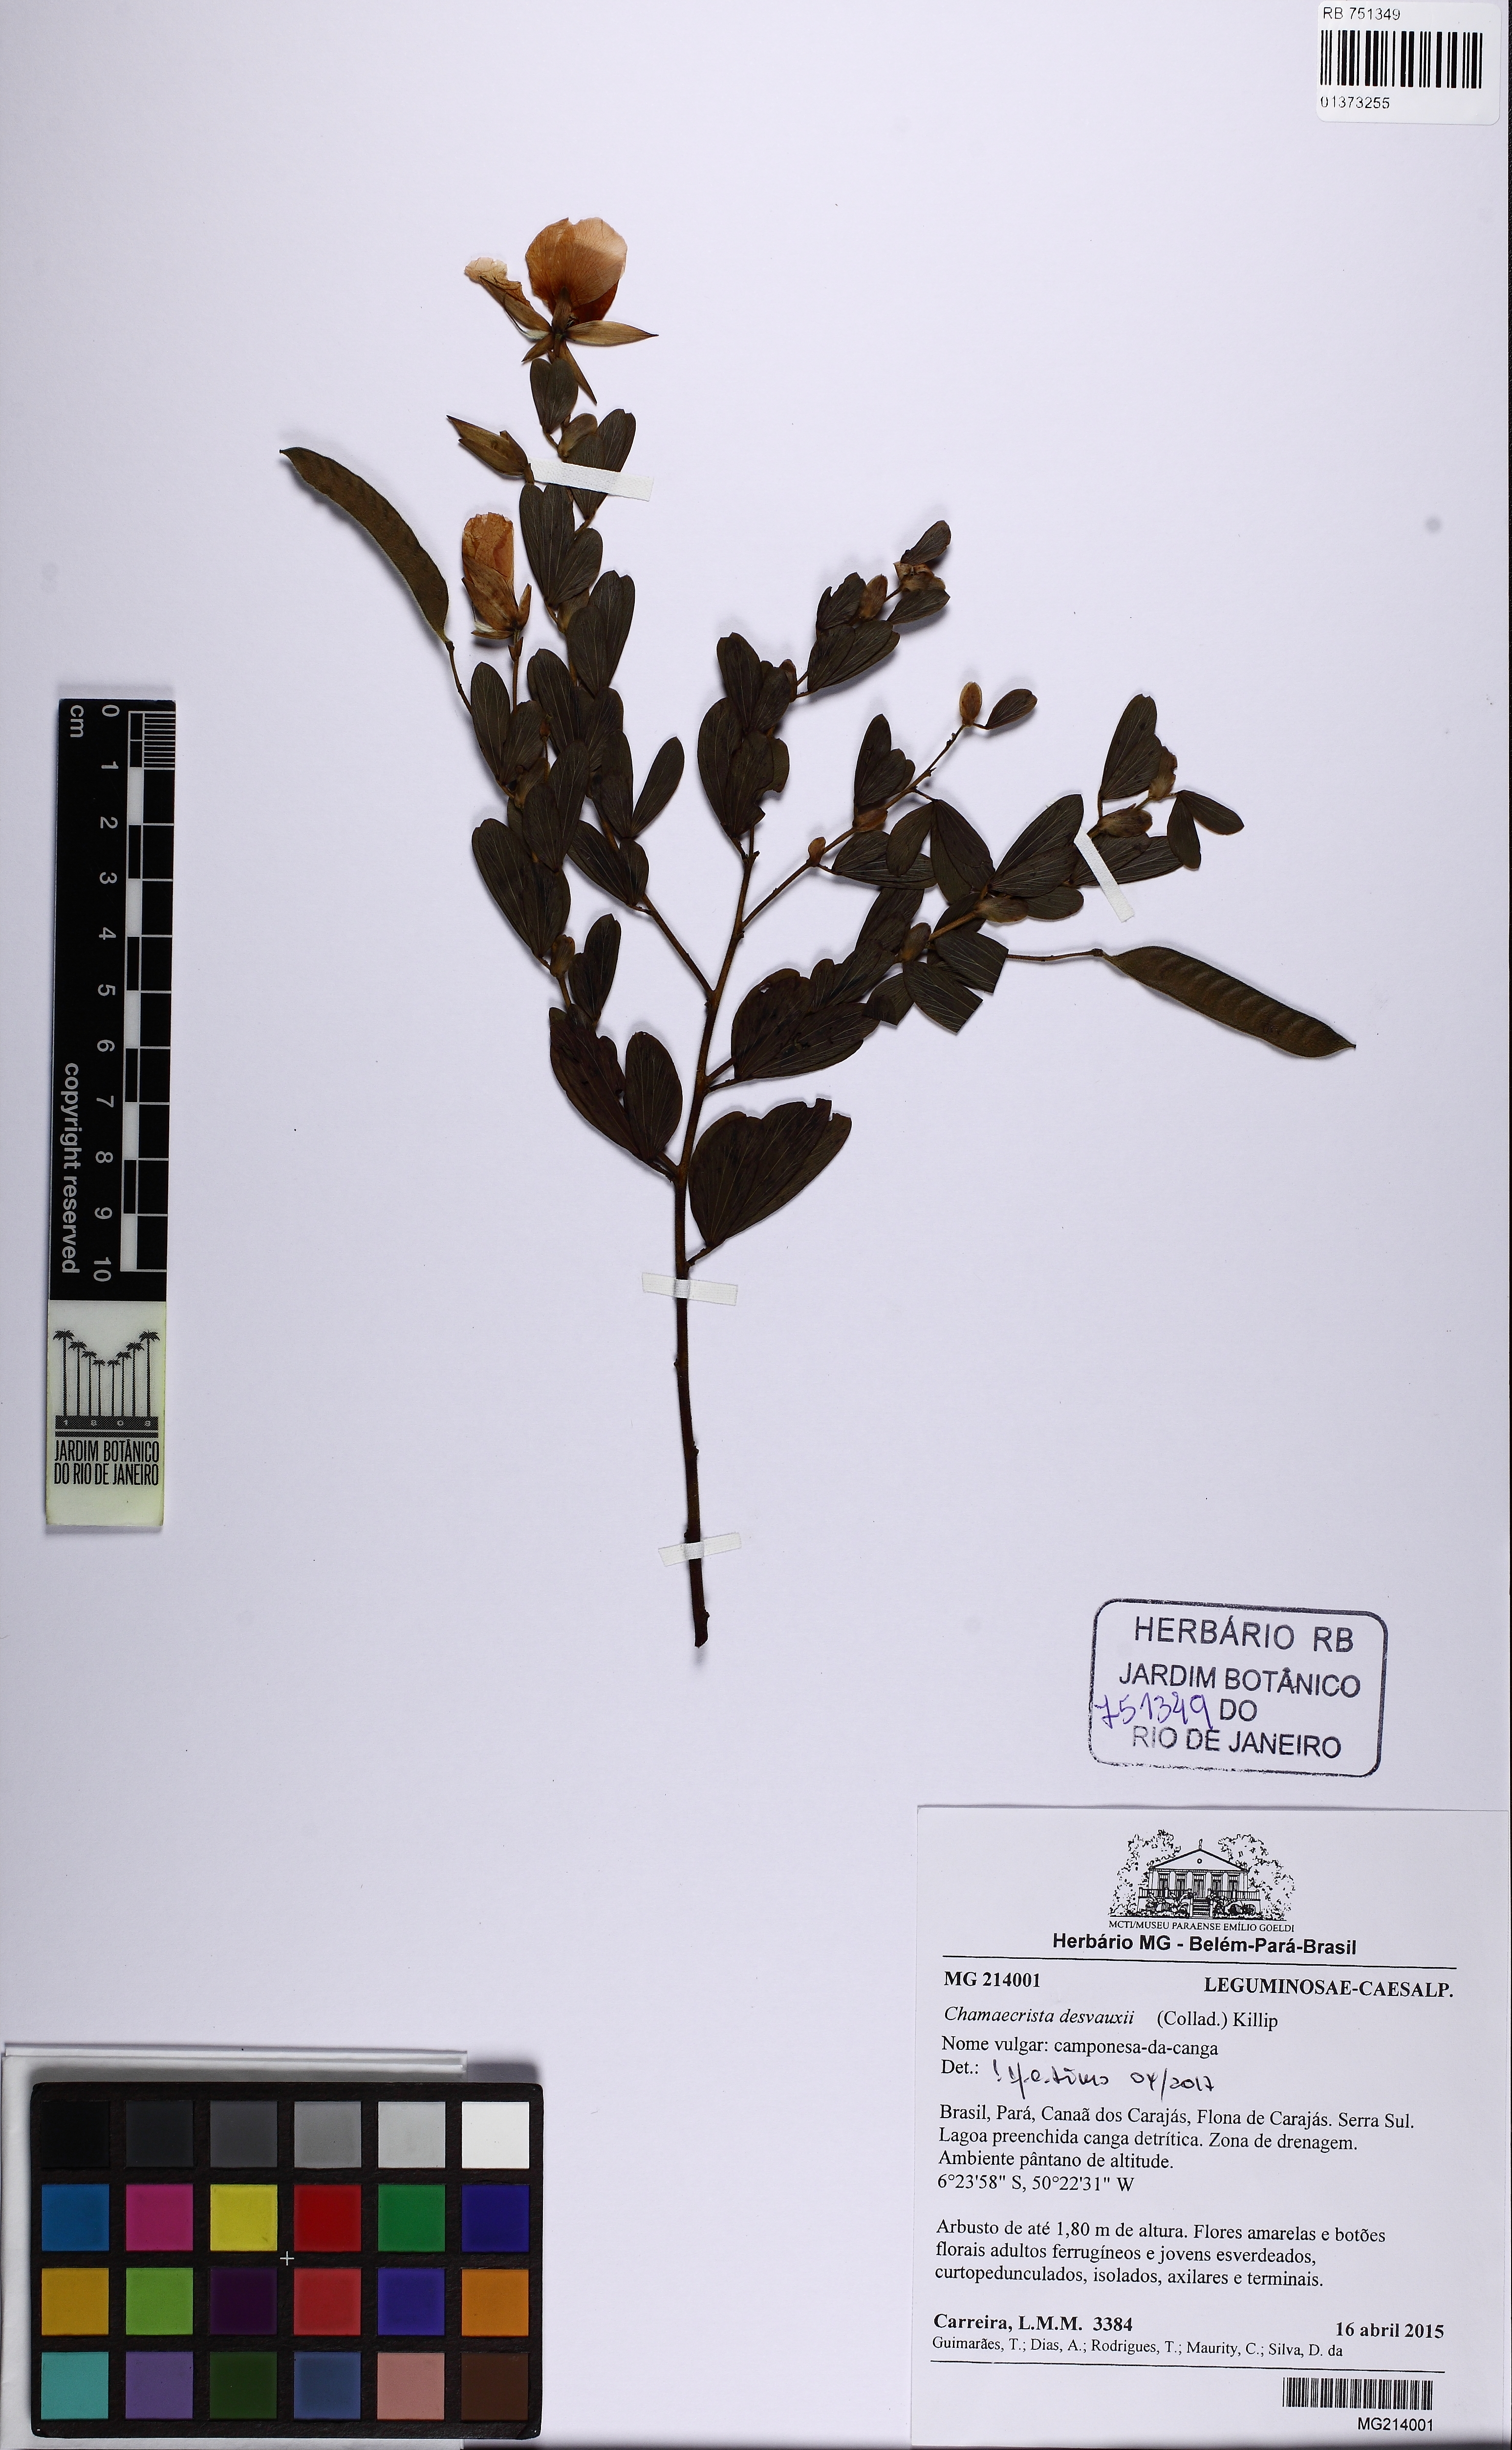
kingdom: Plantae
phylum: Tracheophyta
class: Magnoliopsida
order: Fabales
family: Fabaceae
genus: Chamaecrista
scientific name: Chamaecrista desvauxii
